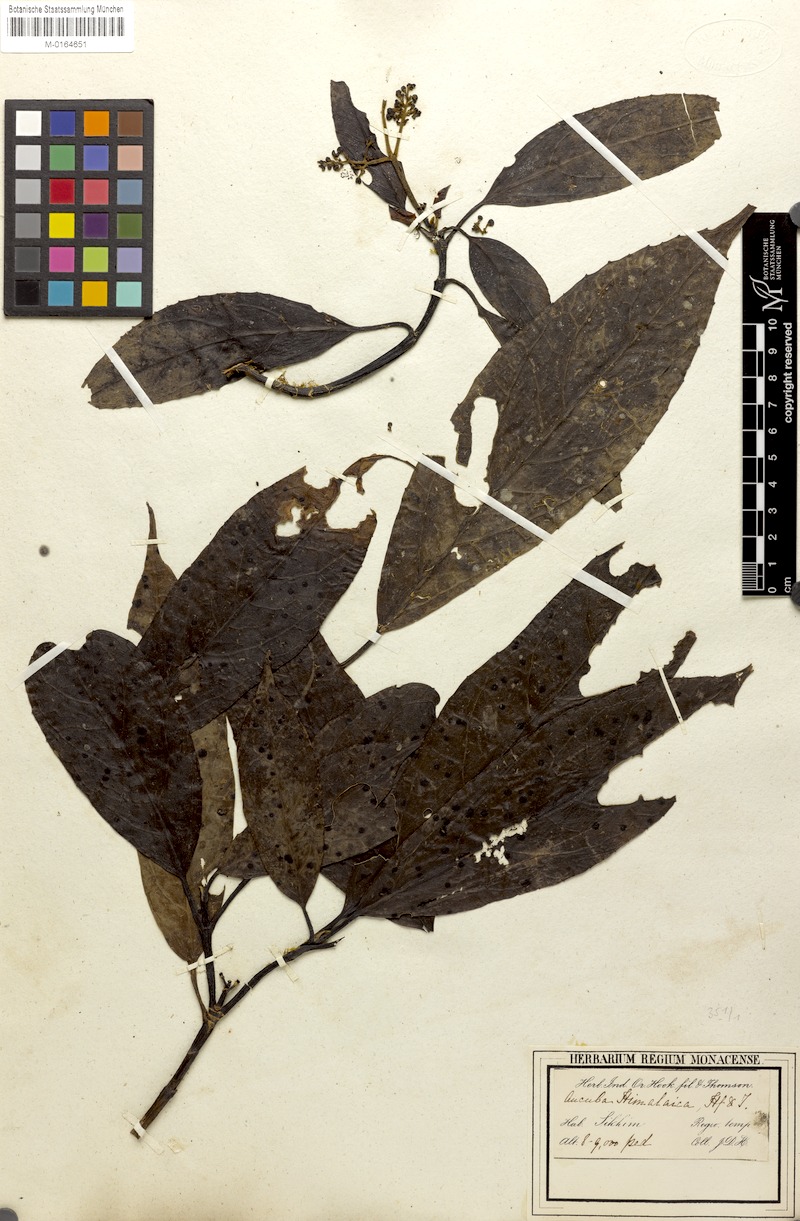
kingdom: Plantae
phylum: Tracheophyta
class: Magnoliopsida
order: Garryales
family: Garryaceae
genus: Aucuba
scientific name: Aucuba himalaica
